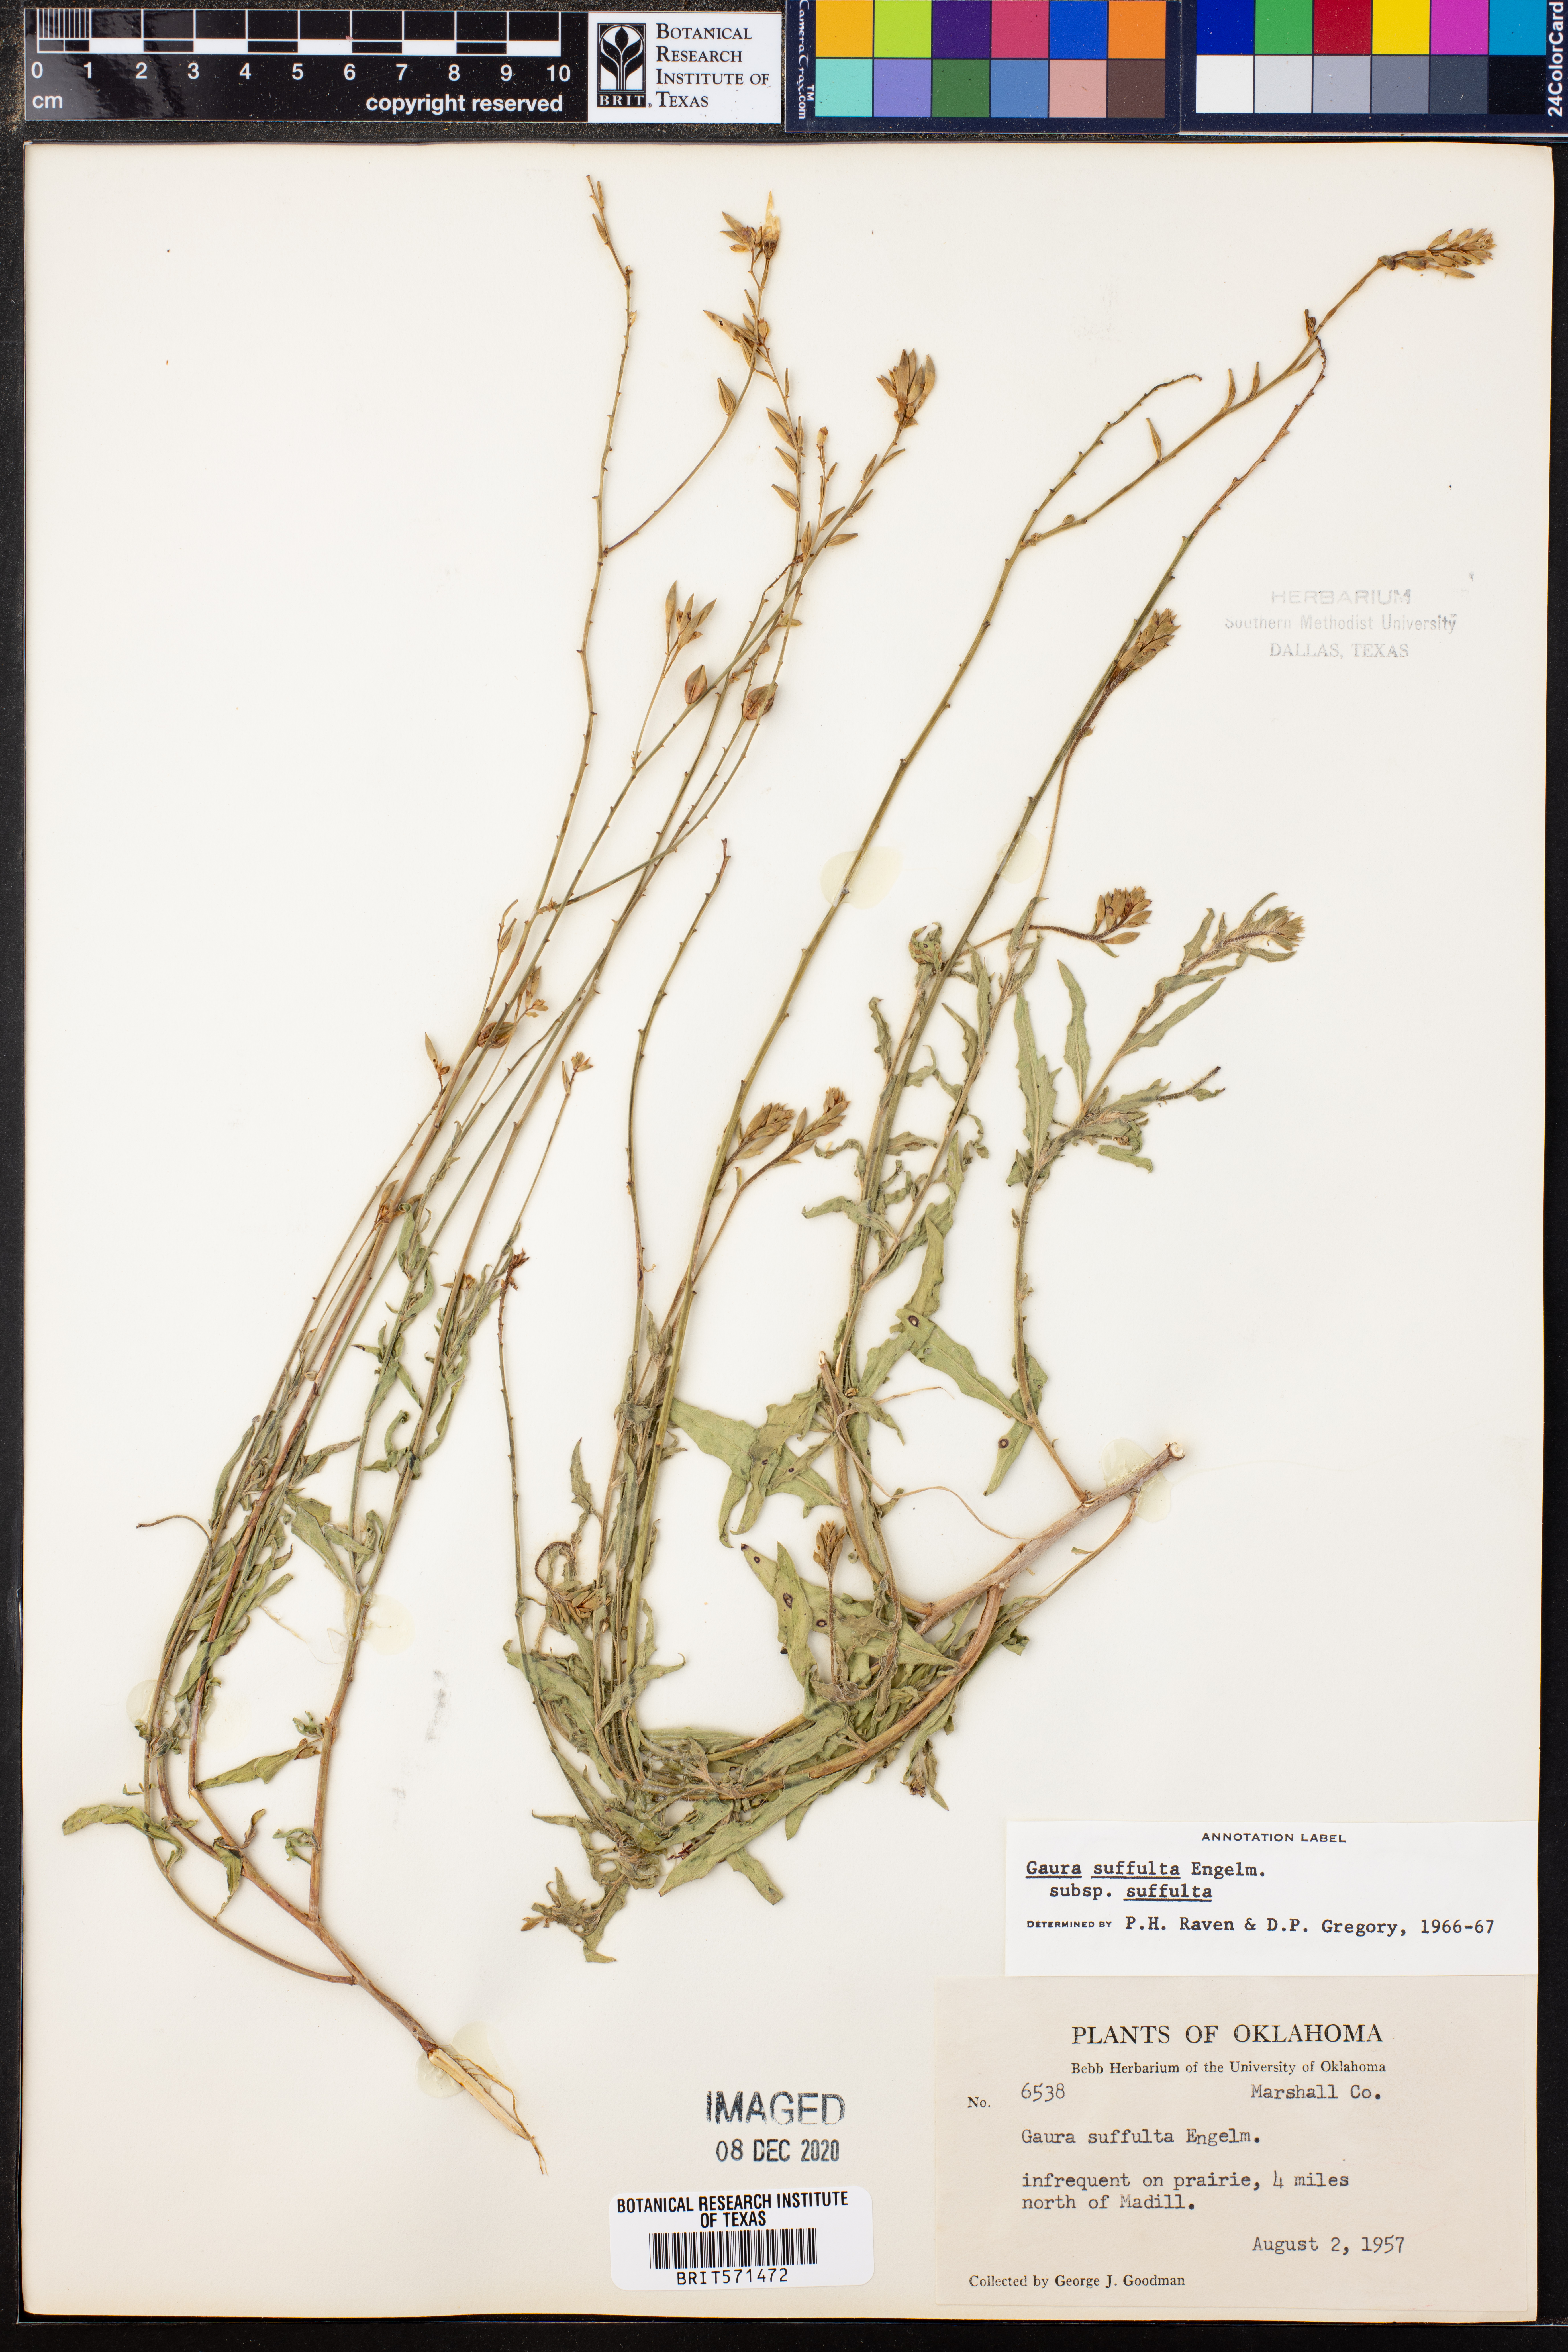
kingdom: Plantae
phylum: Tracheophyta
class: Magnoliopsida
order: Myrtales
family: Onagraceae
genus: Oenothera
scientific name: Oenothera suffulta
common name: Kisses
